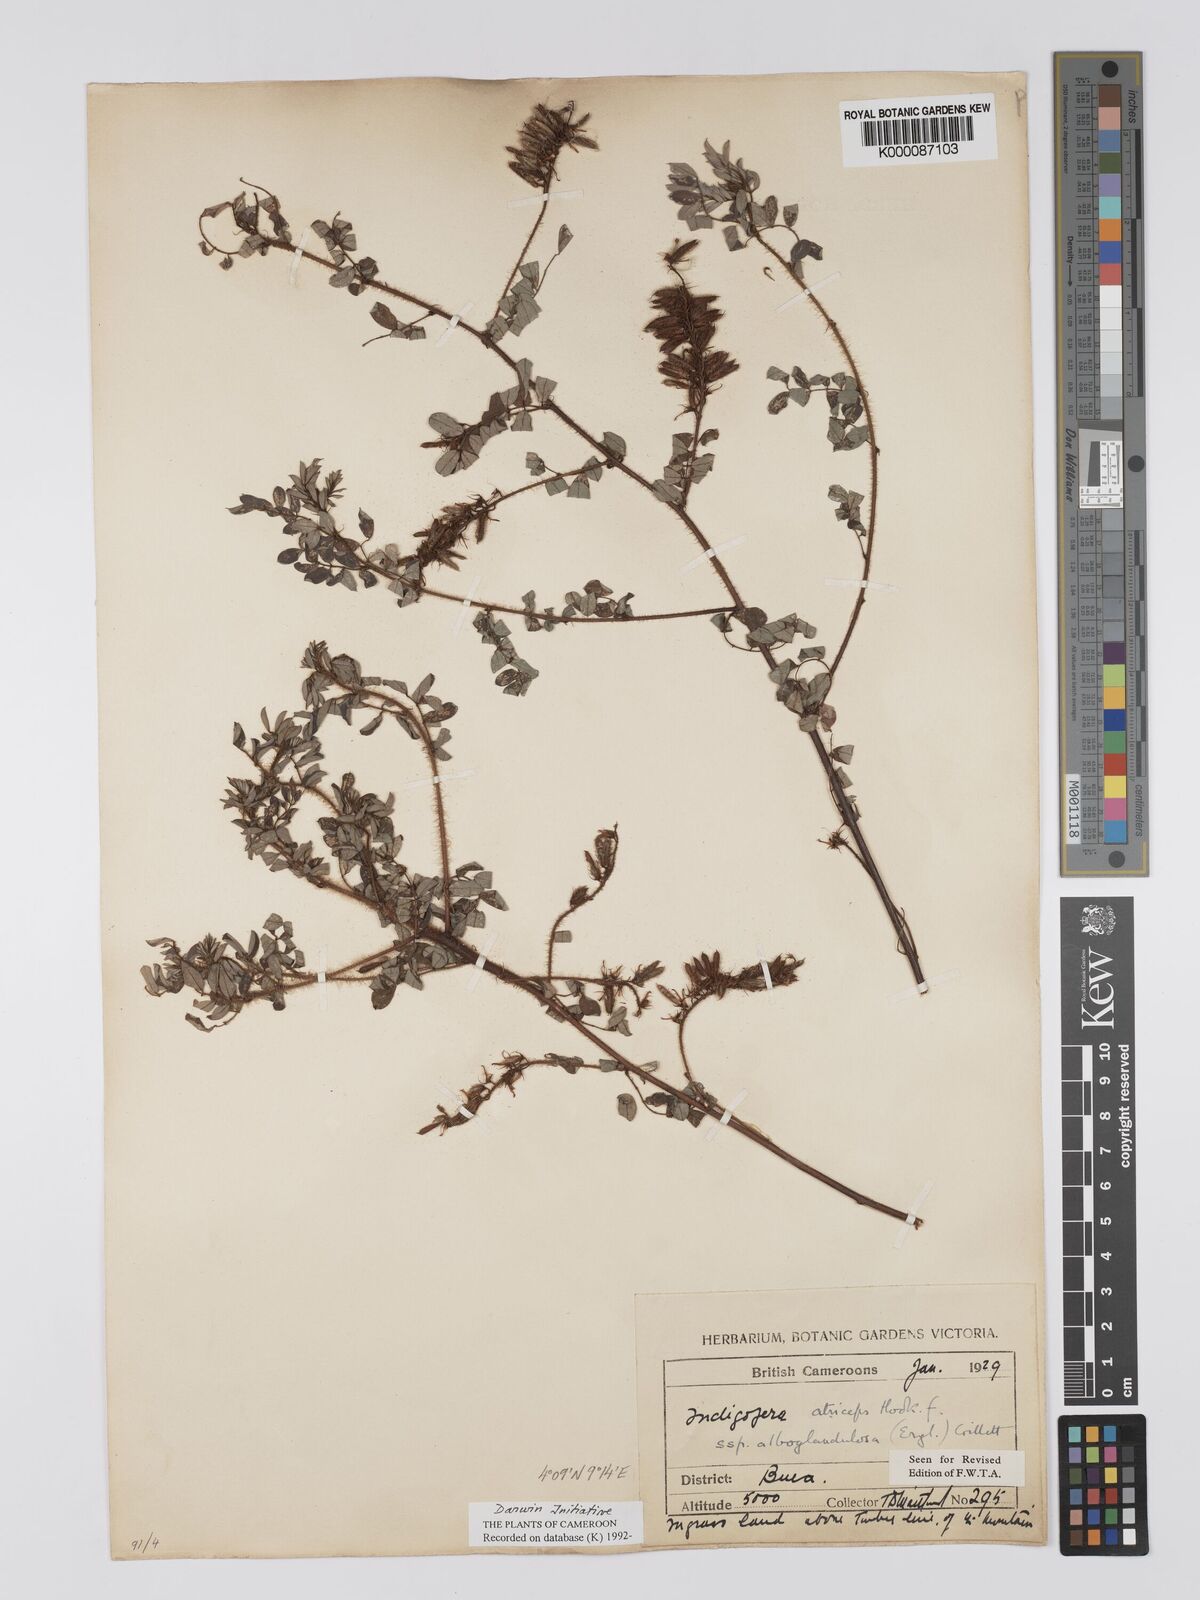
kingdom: Plantae
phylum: Tracheophyta
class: Magnoliopsida
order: Fabales
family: Fabaceae
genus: Indigofera
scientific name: Indigofera atriceps
